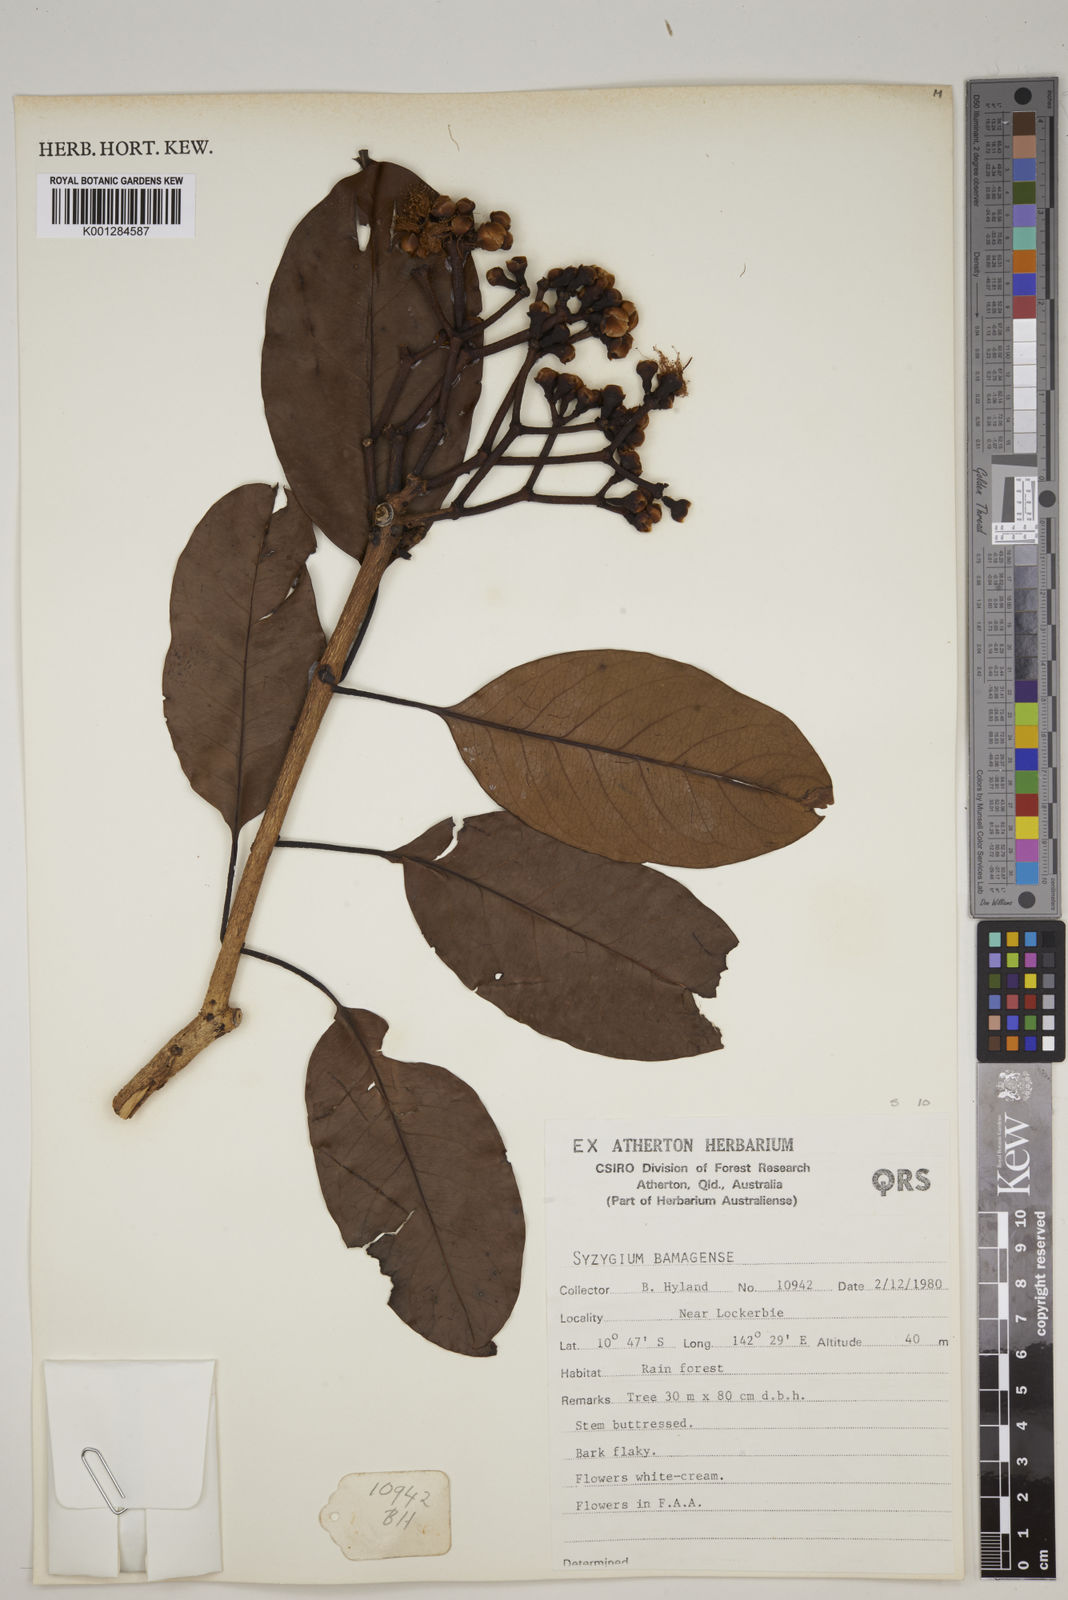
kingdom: Plantae
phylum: Tracheophyta
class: Magnoliopsida
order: Myrtales
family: Myrtaceae
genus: Syzygium
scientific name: Syzygium bamagense
